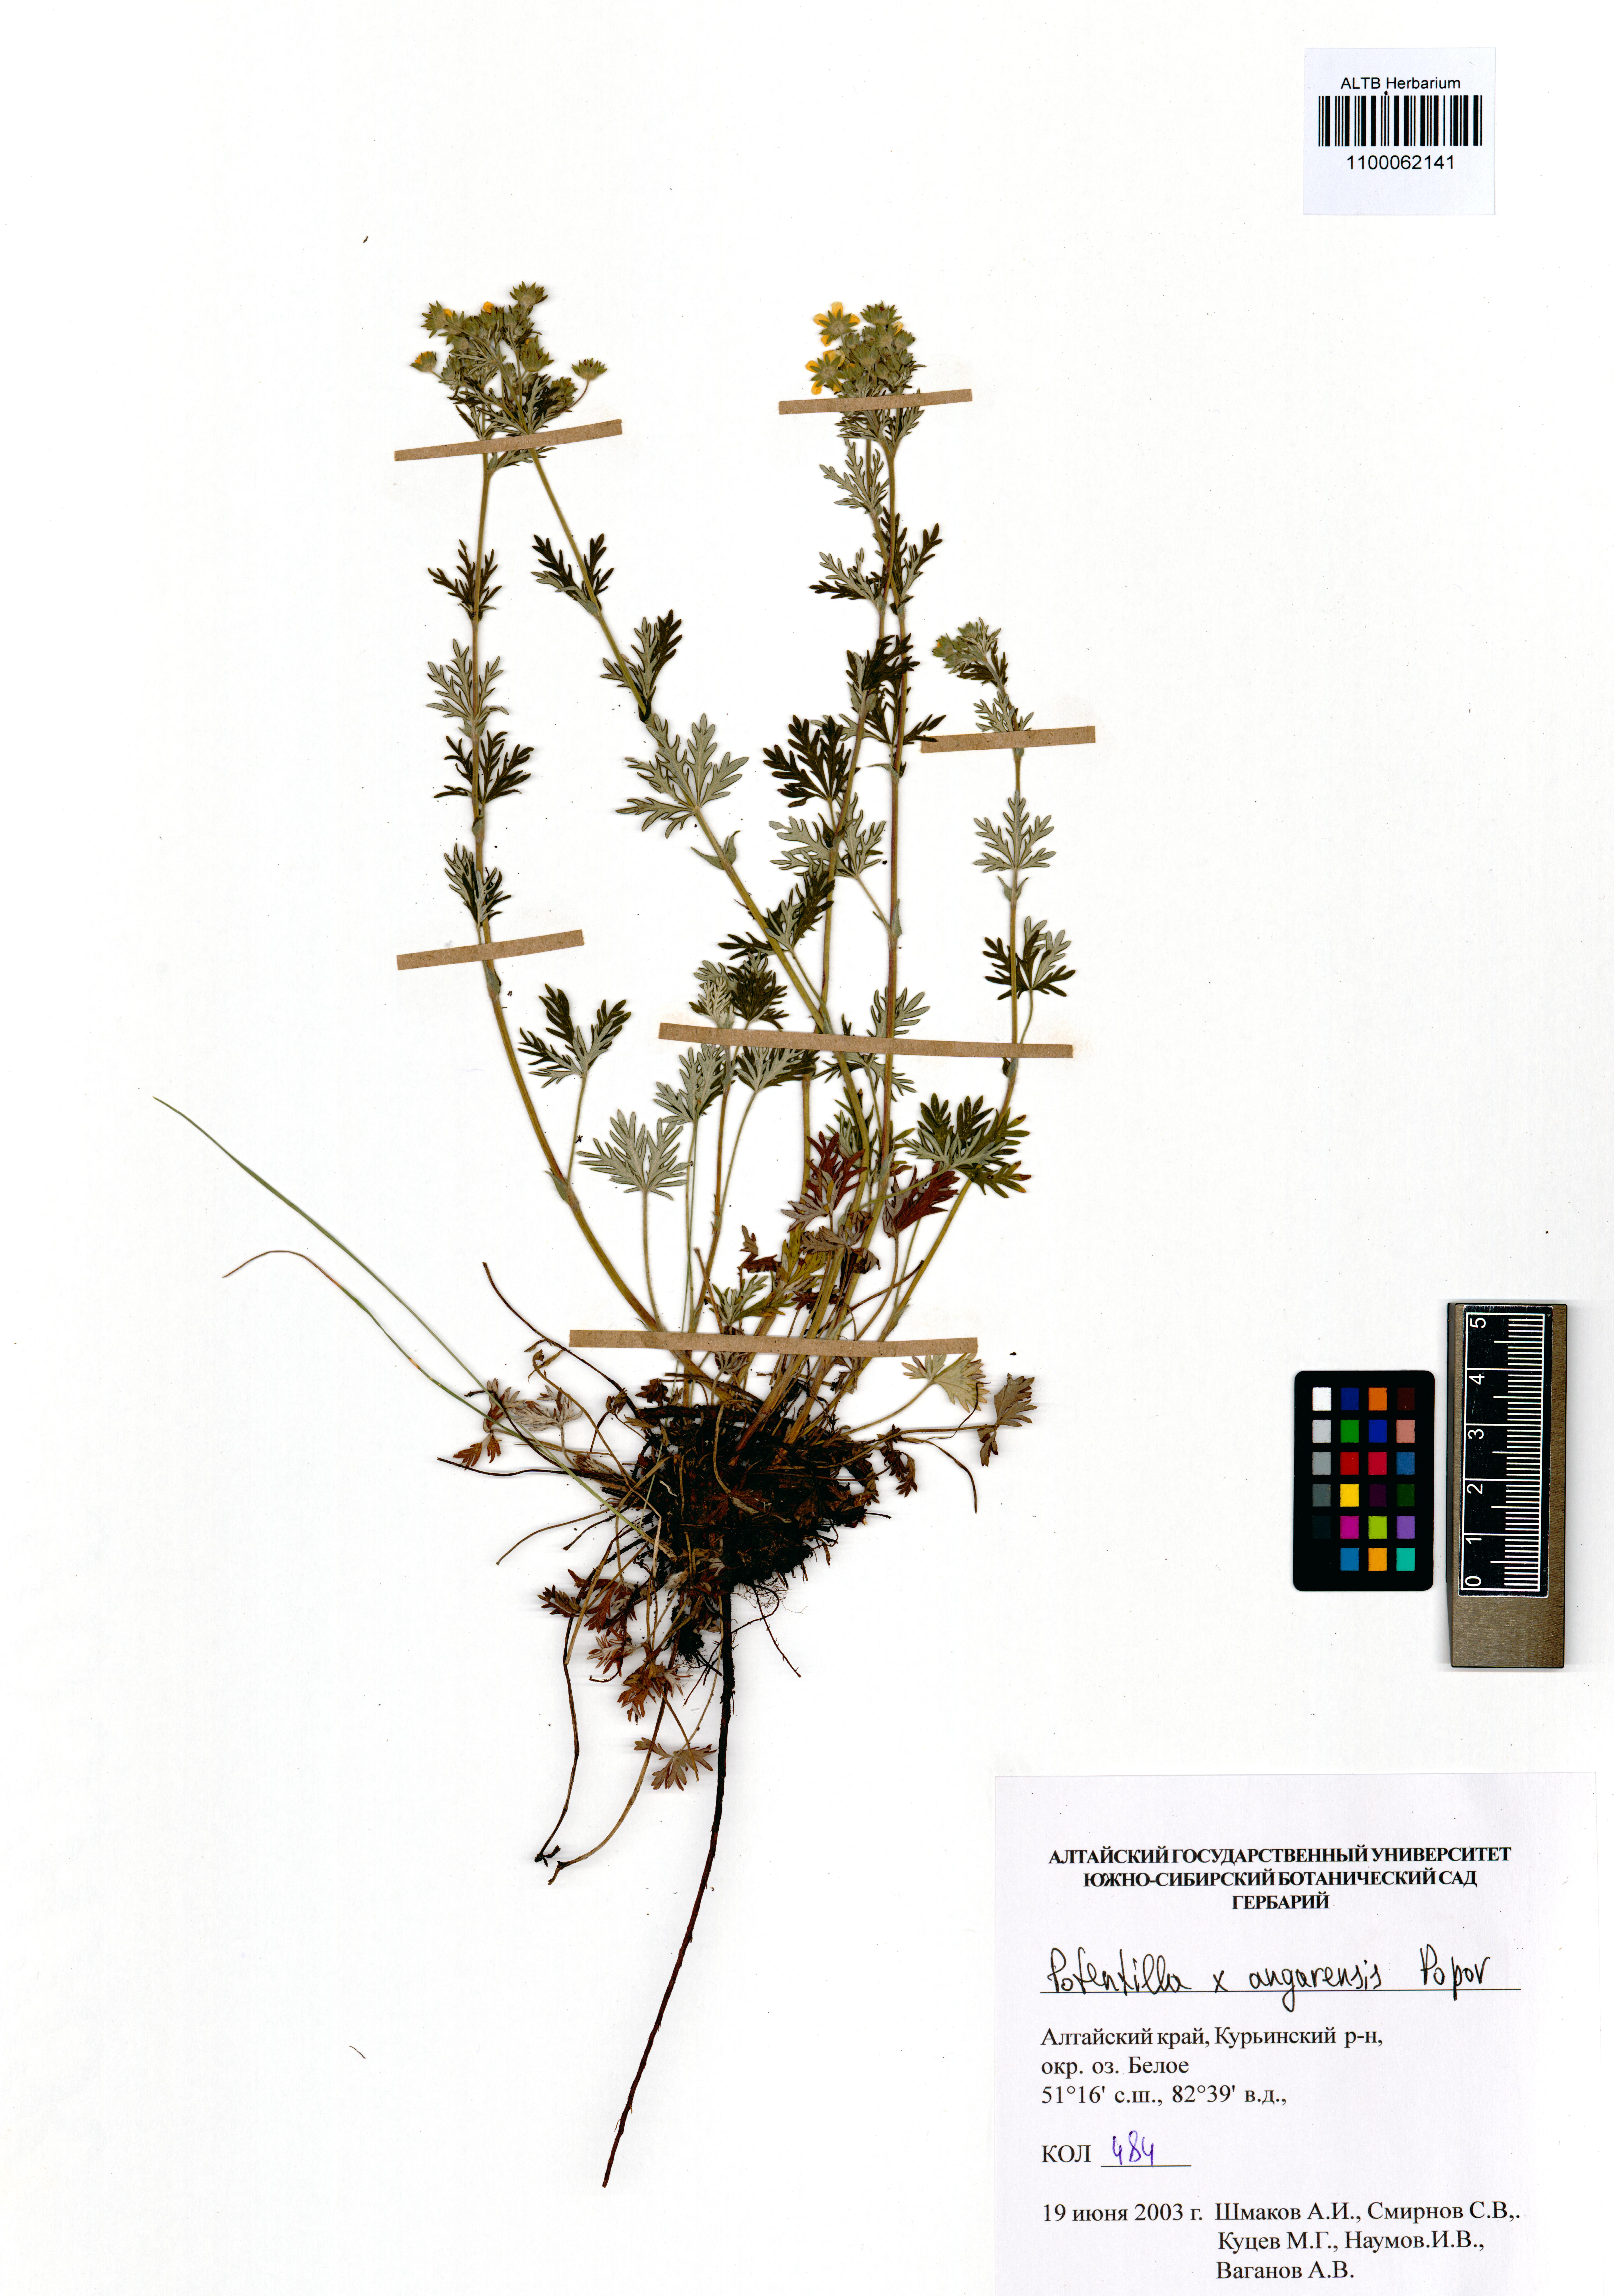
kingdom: Plantae
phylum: Tracheophyta
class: Magnoliopsida
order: Rosales
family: Rosaceae
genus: Potentilla
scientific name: Potentilla angarensis
